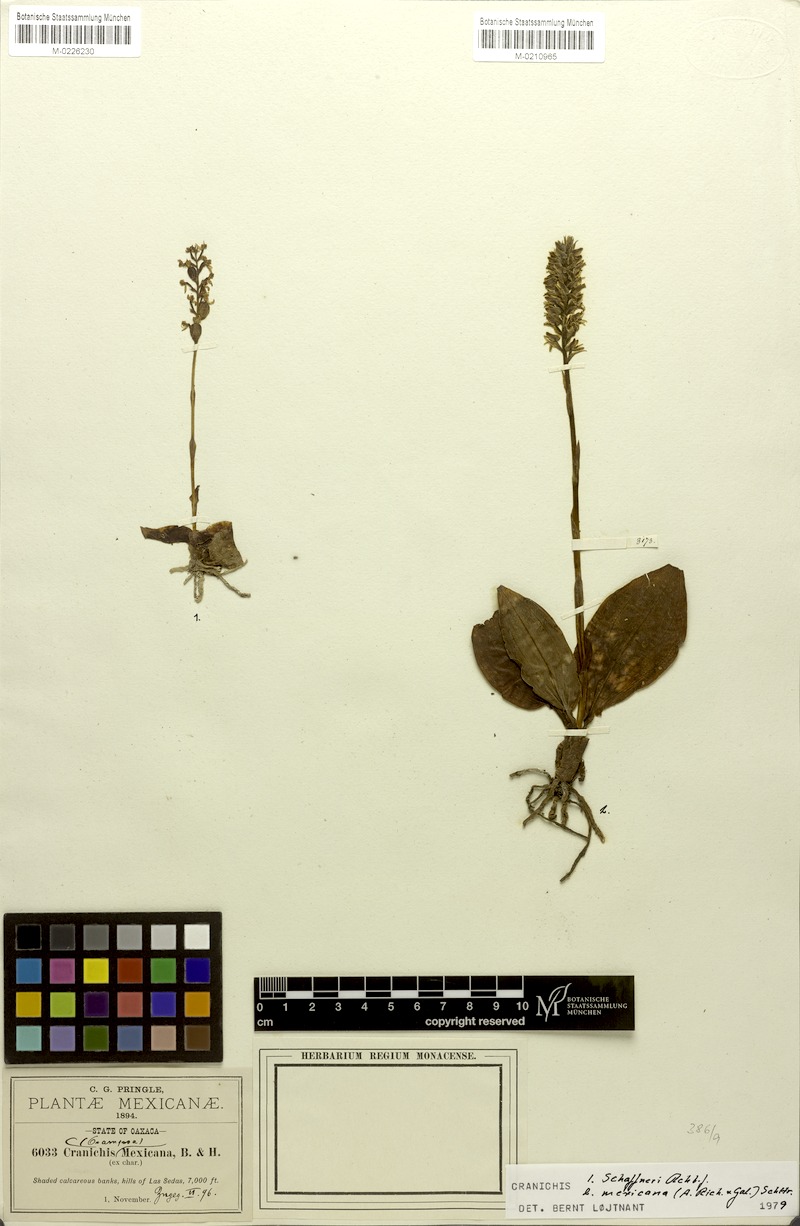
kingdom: Plantae
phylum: Tracheophyta
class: Liliopsida
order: Asparagales
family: Orchidaceae
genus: Ponthieva
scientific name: Ponthieva schaffneri
